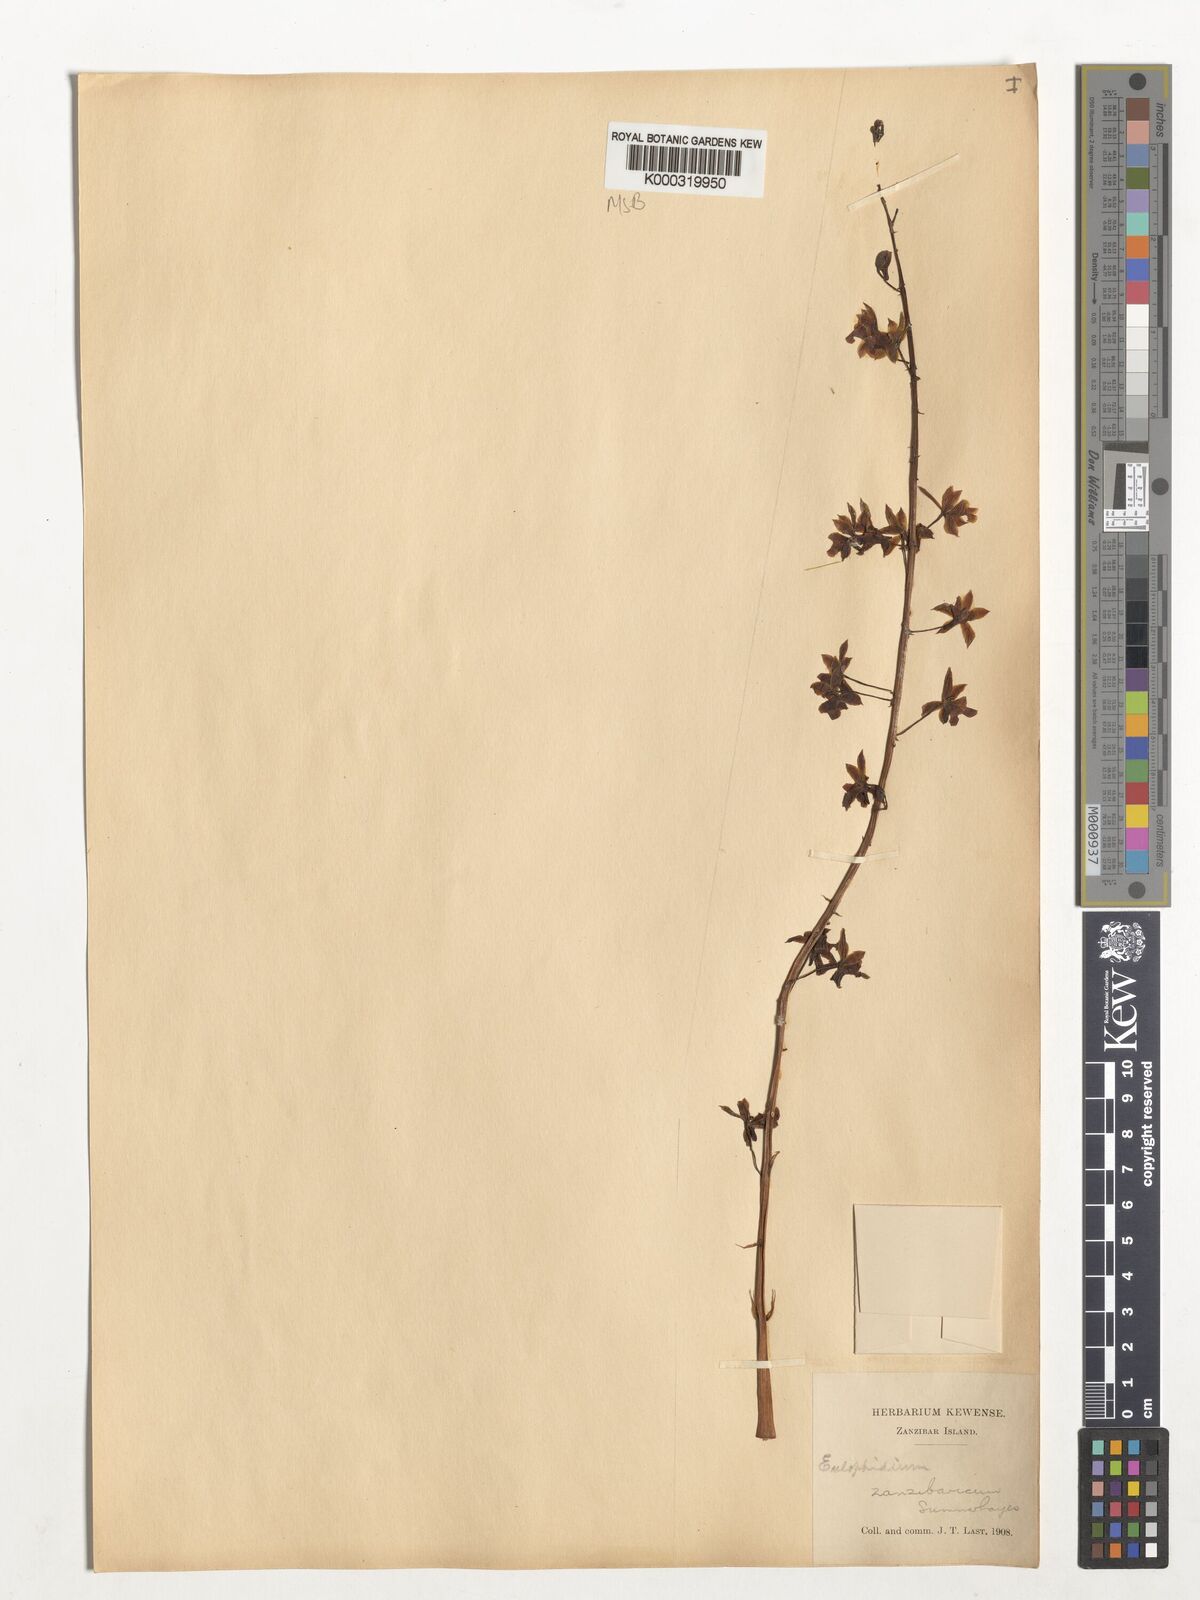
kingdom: Plantae
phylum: Tracheophyta
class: Liliopsida
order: Asparagales
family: Orchidaceae
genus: Eulophia
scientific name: Eulophia zanzibarica
